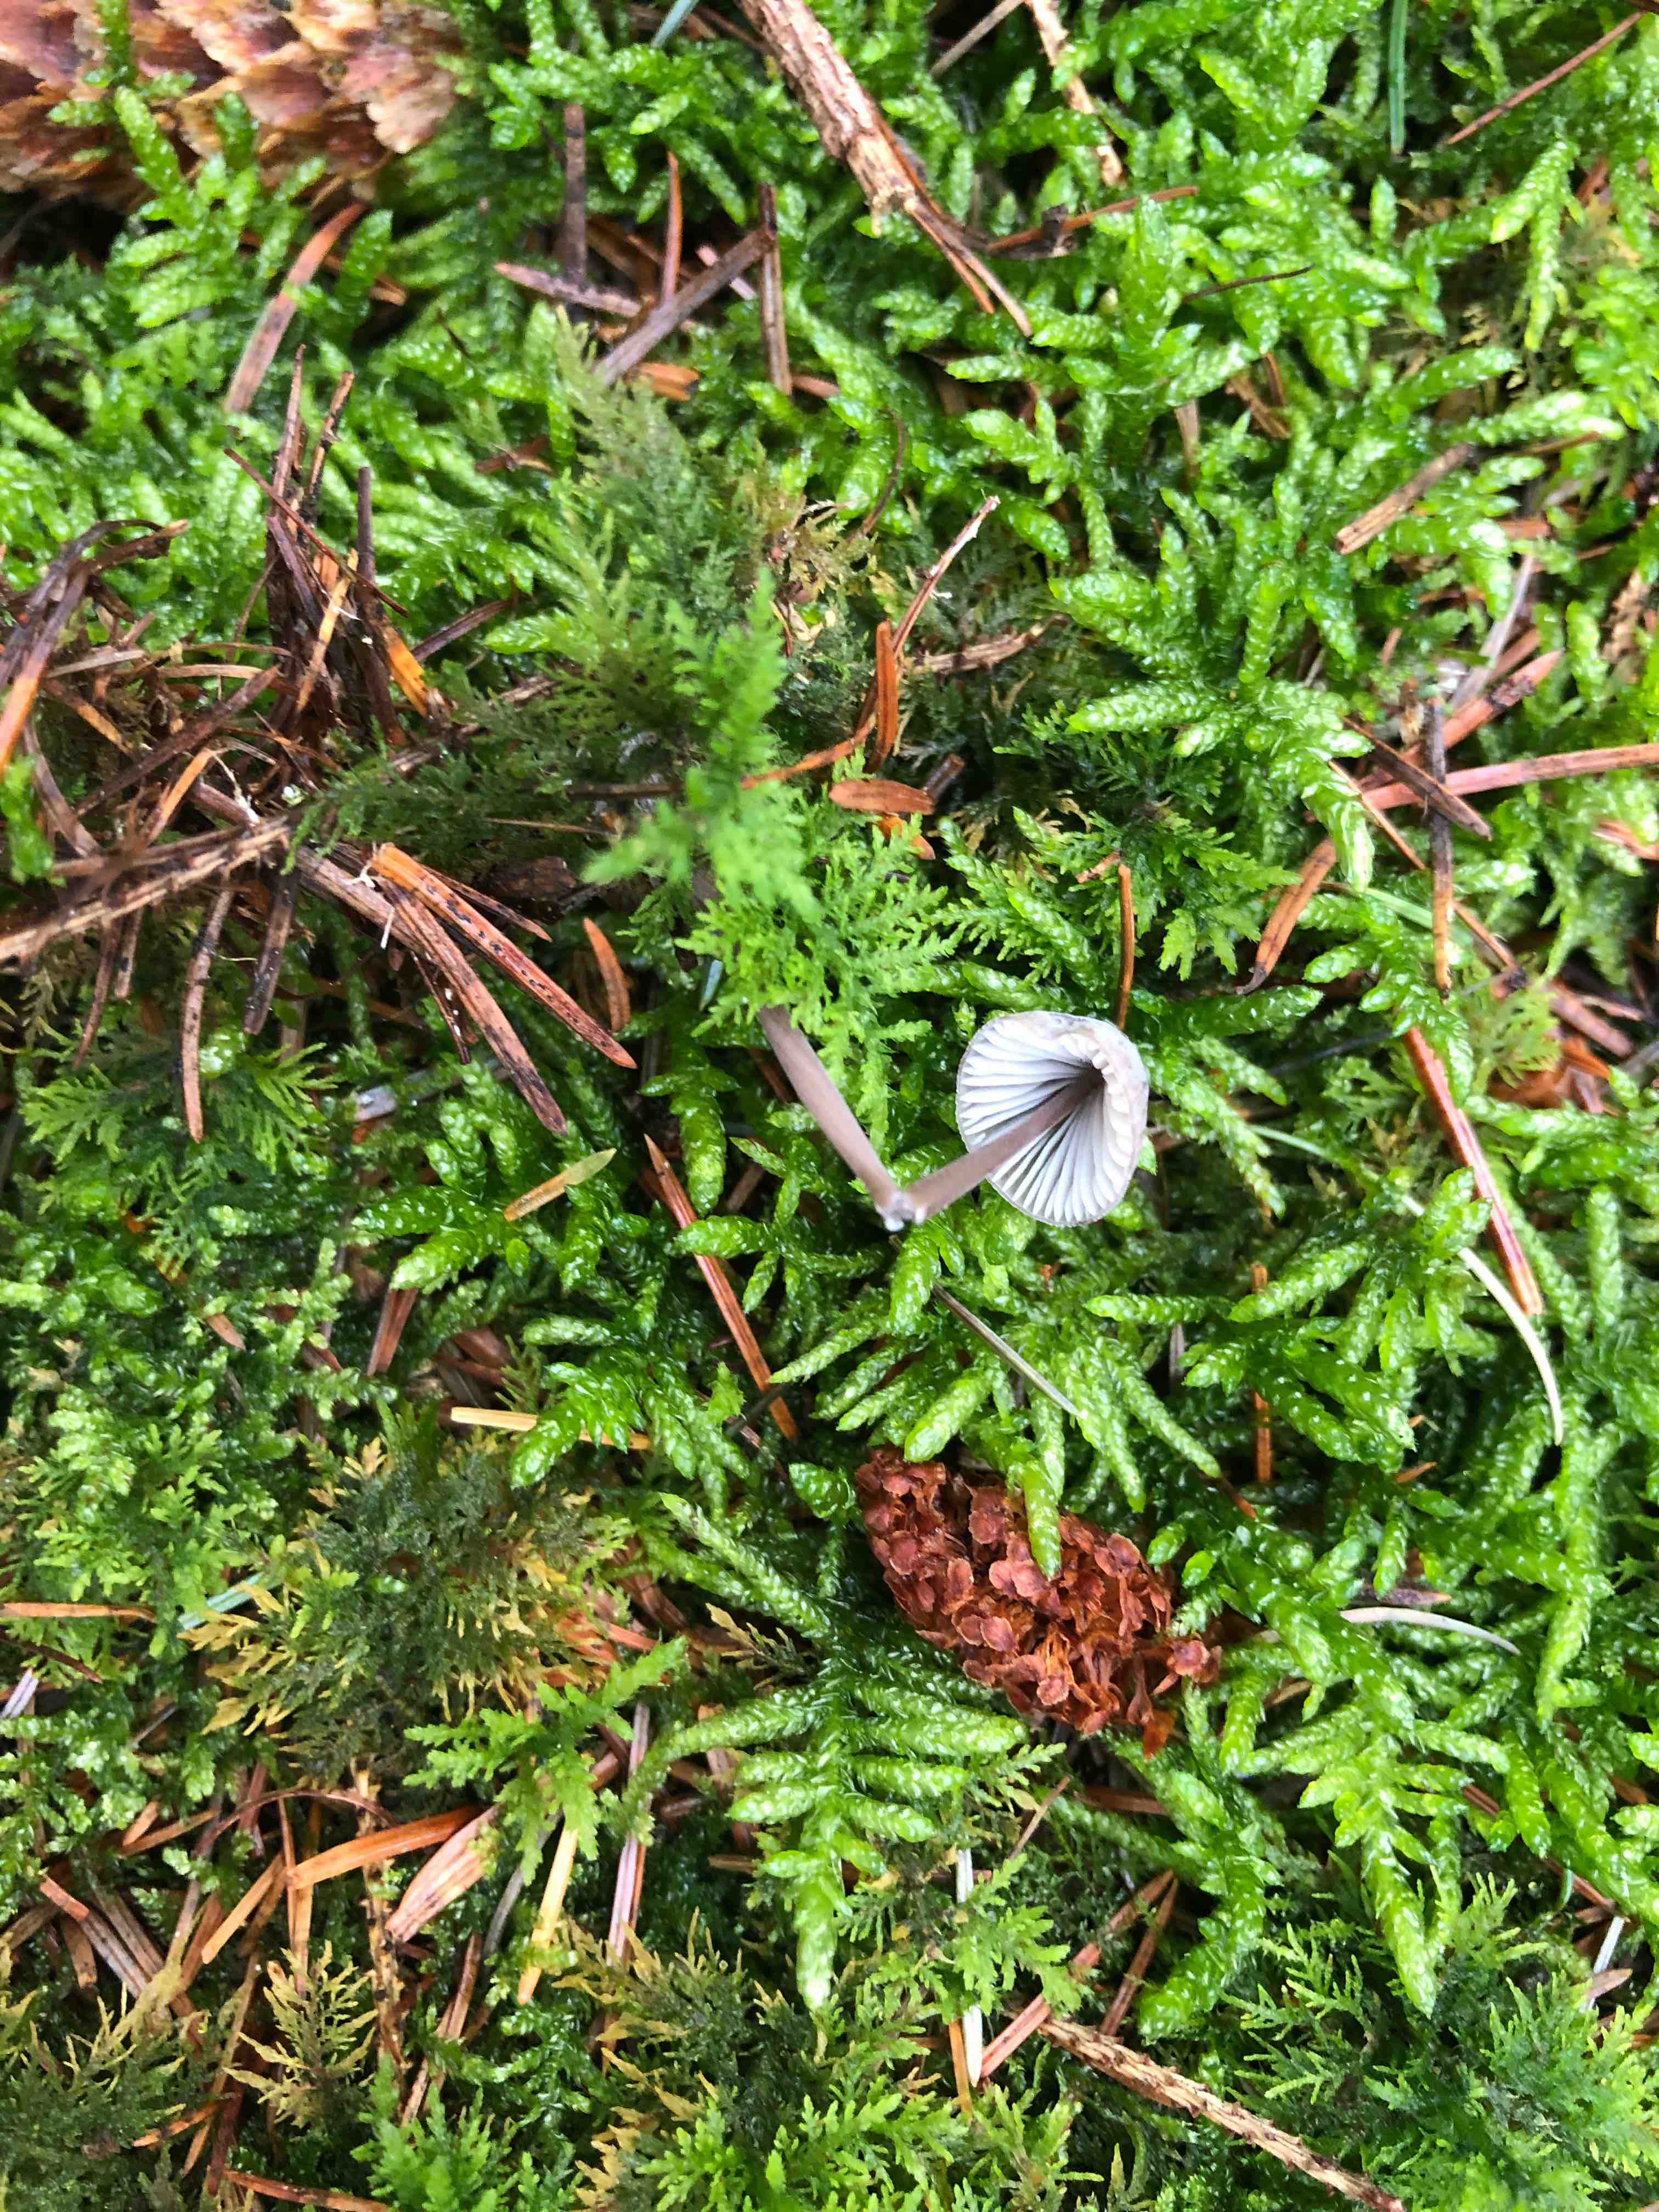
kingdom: Fungi
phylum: Basidiomycota
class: Agaricomycetes
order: Agaricales
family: Mycenaceae
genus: Mycena
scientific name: Mycena galopus
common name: hvidmælket huesvamp
